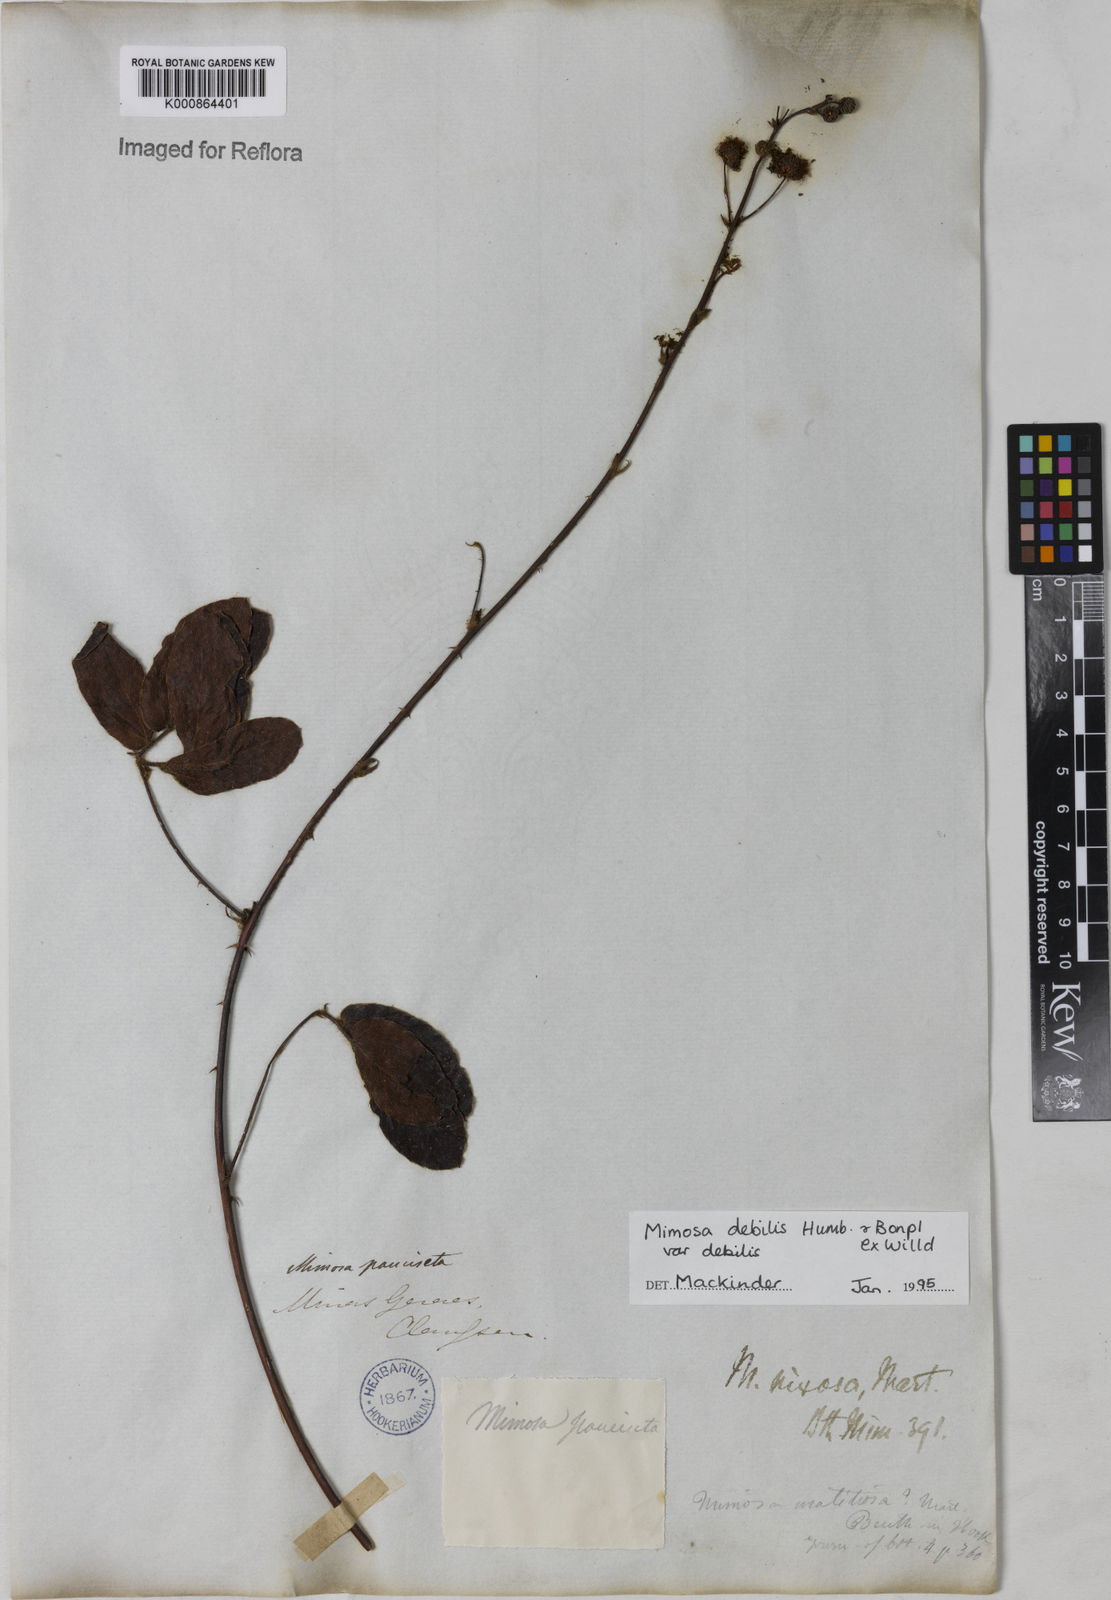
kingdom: Plantae
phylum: Tracheophyta
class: Magnoliopsida
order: Fabales
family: Fabaceae
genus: Mimosa
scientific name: Mimosa debilis
